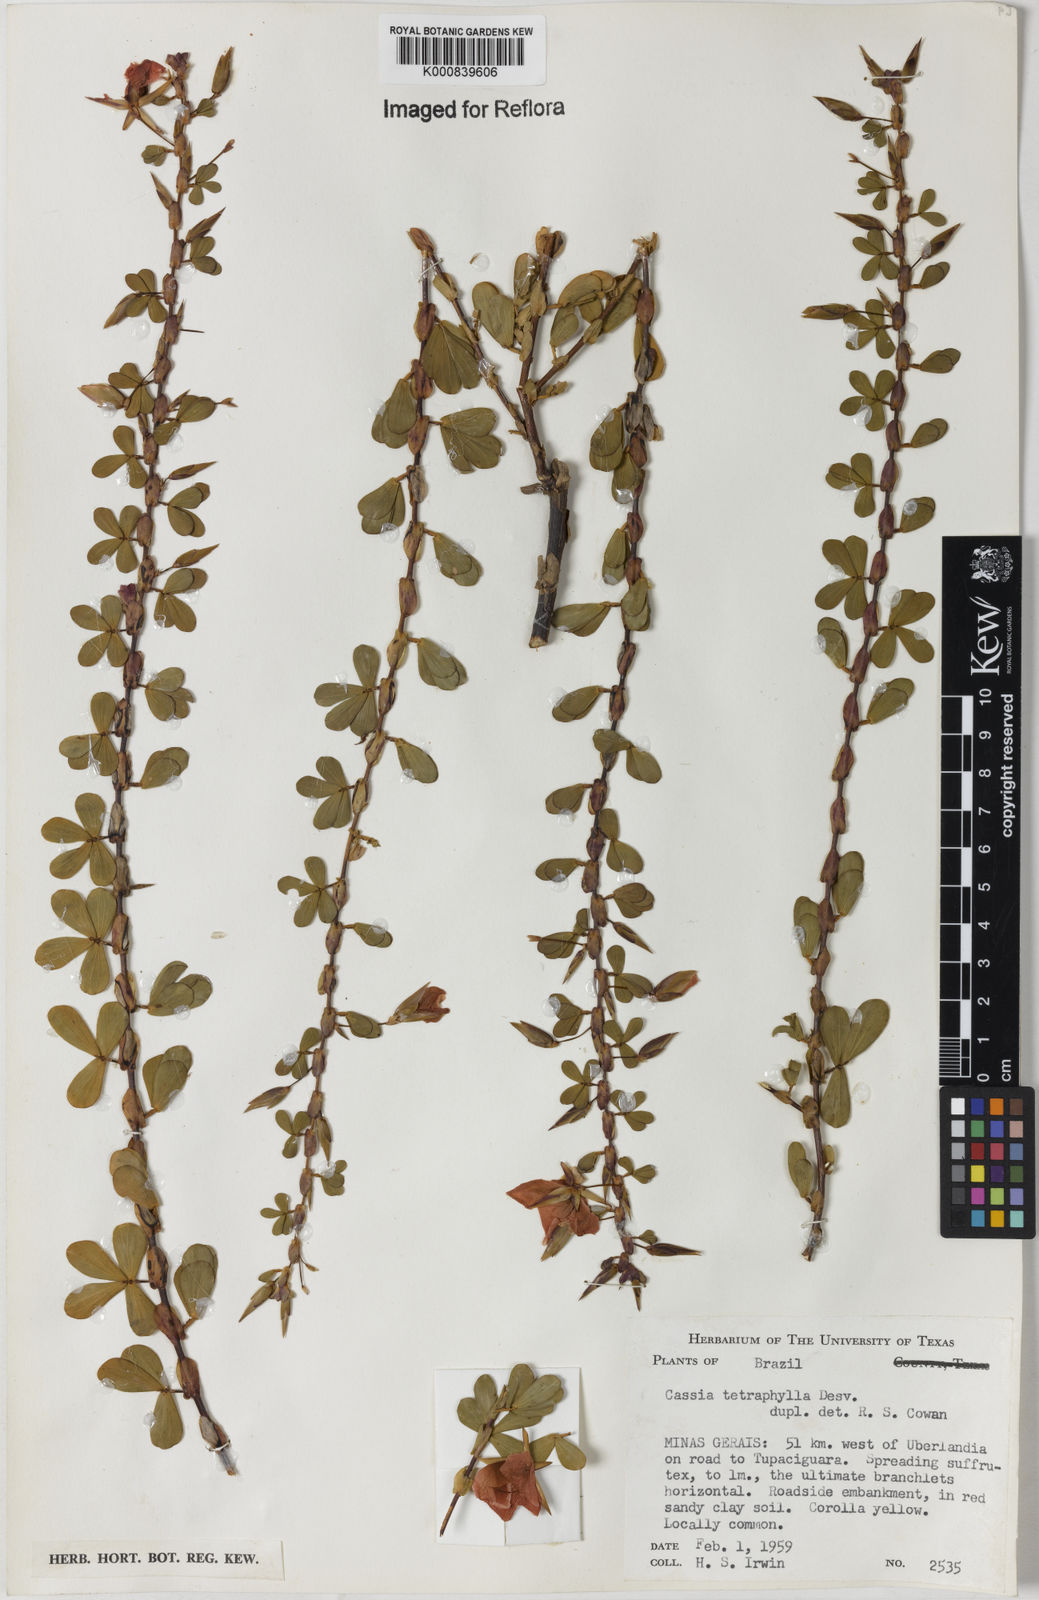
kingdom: Plantae
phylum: Tracheophyta
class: Magnoliopsida
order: Fabales
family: Fabaceae
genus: Chamaecrista
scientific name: Chamaecrista desvauxii
